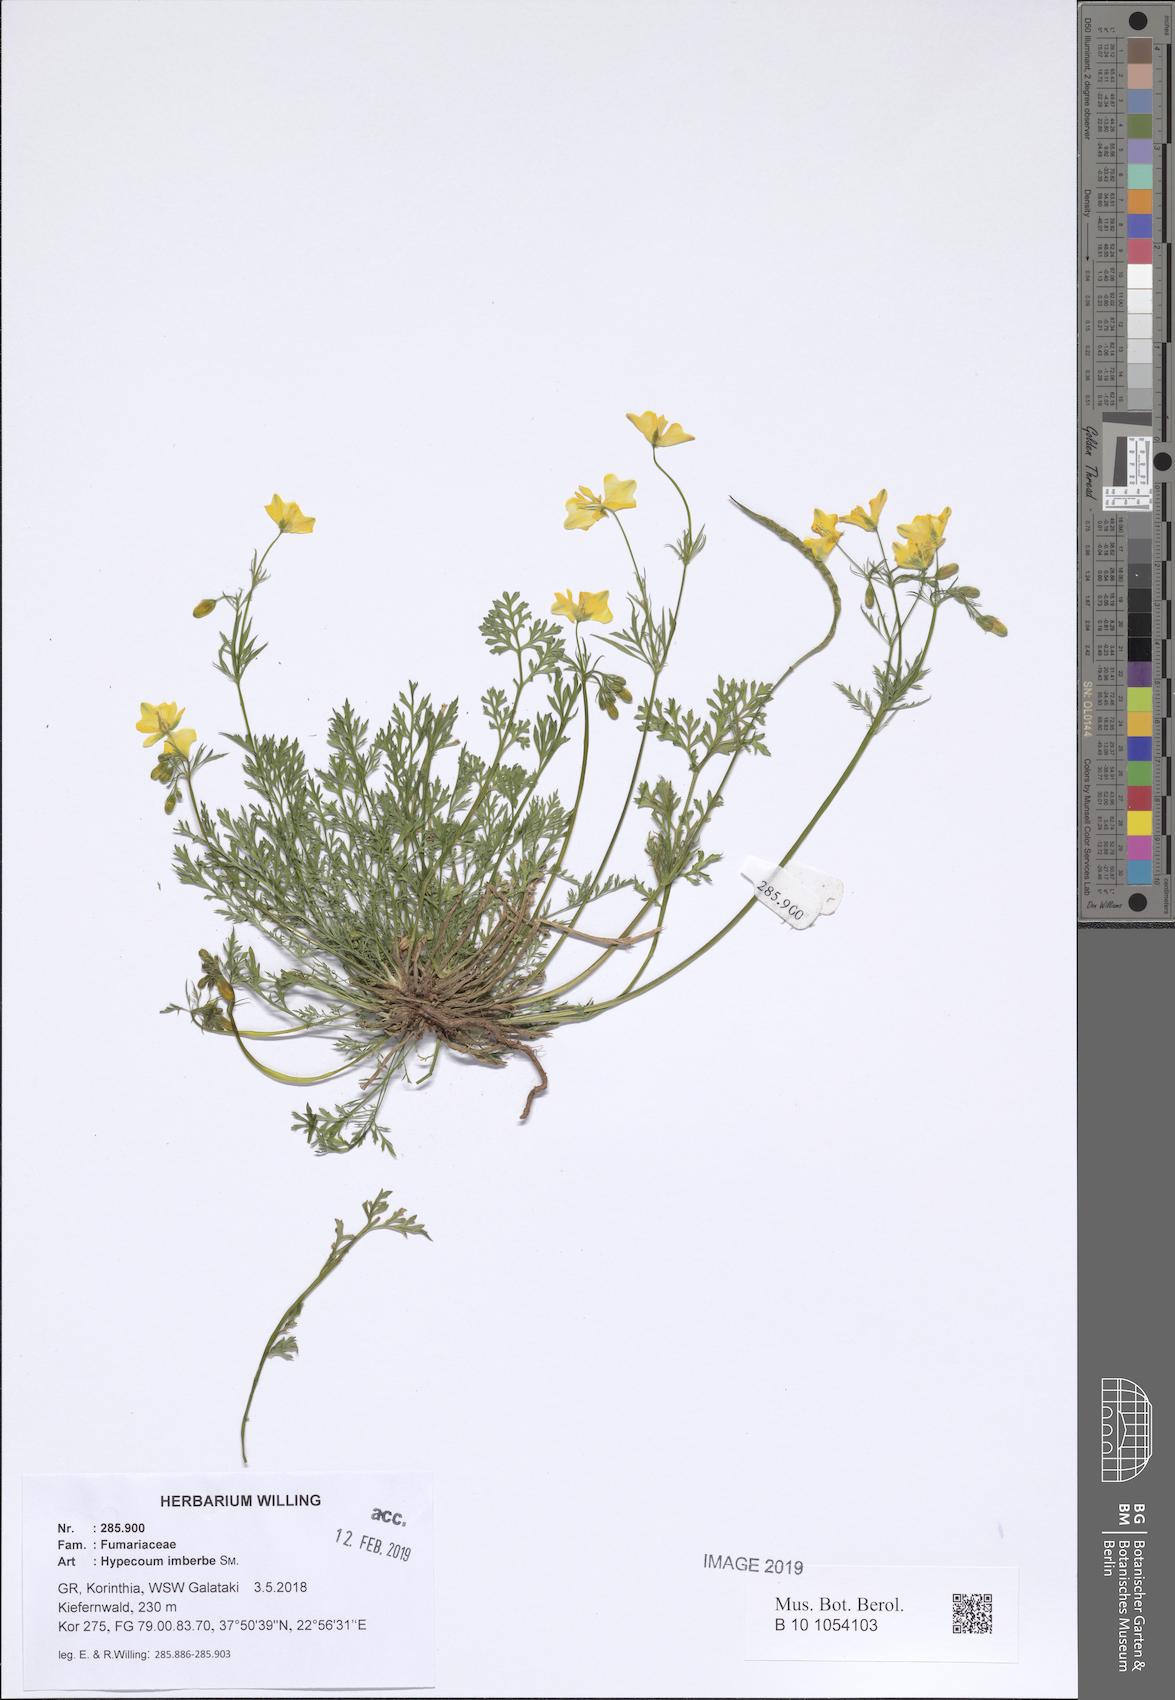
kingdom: Plantae
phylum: Tracheophyta
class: Magnoliopsida
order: Ranunculales
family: Papaveraceae
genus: Hypecoum
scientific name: Hypecoum imberbe
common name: Sicklefruit hypecoum
